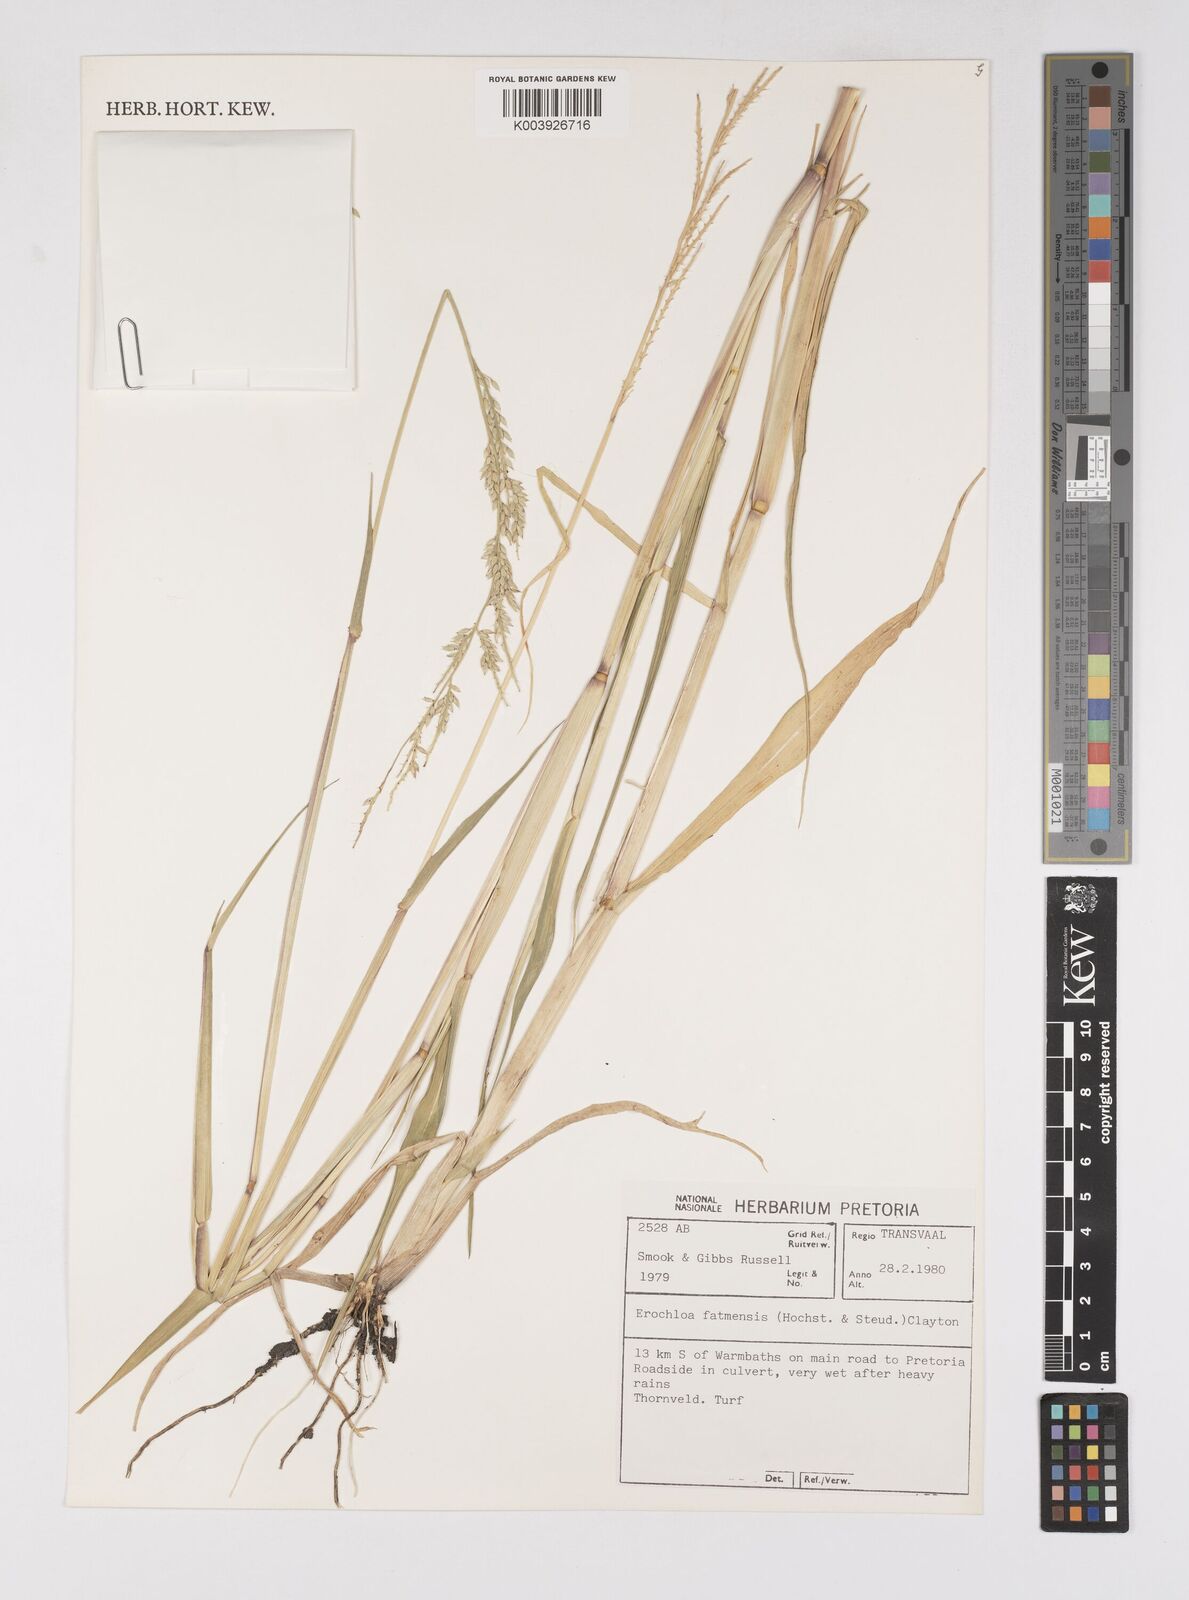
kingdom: Plantae
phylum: Tracheophyta
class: Liliopsida
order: Poales
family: Poaceae
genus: Eriochloa
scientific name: Eriochloa barbatus
